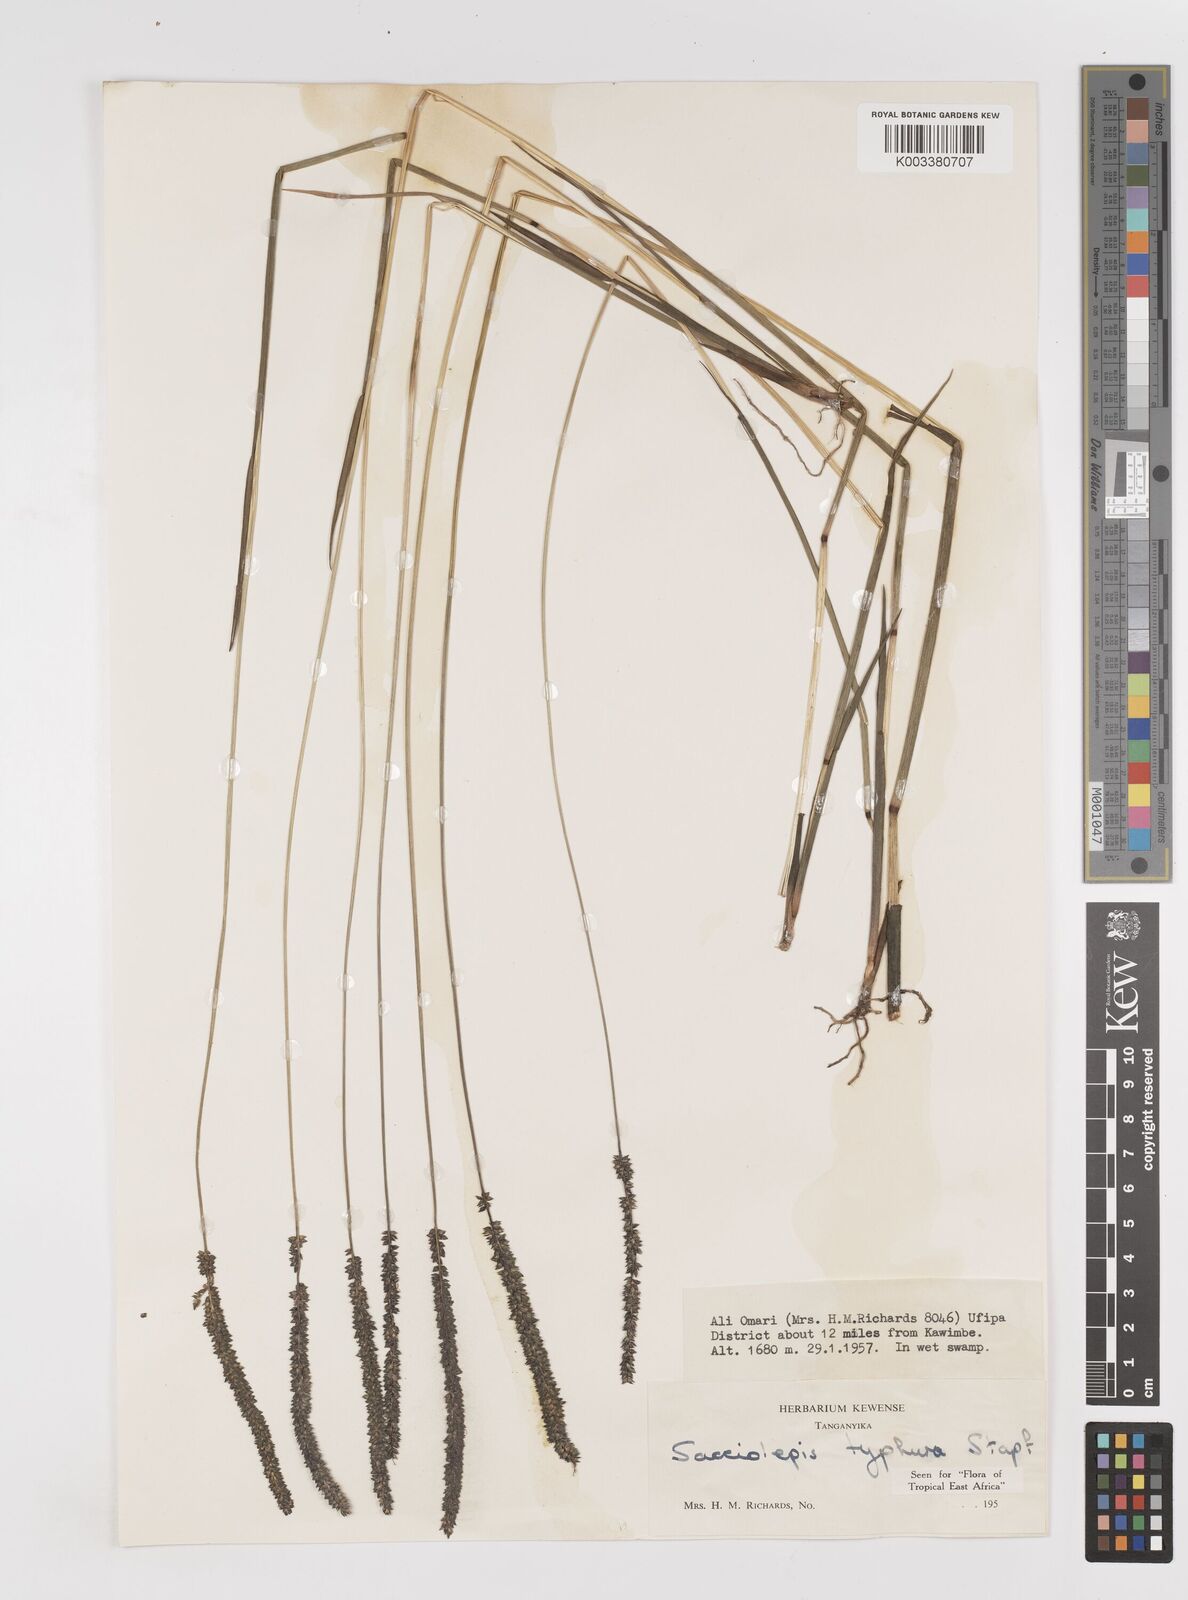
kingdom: Plantae
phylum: Tracheophyta
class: Liliopsida
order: Poales
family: Poaceae
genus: Sacciolepis
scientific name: Sacciolepis typhura
